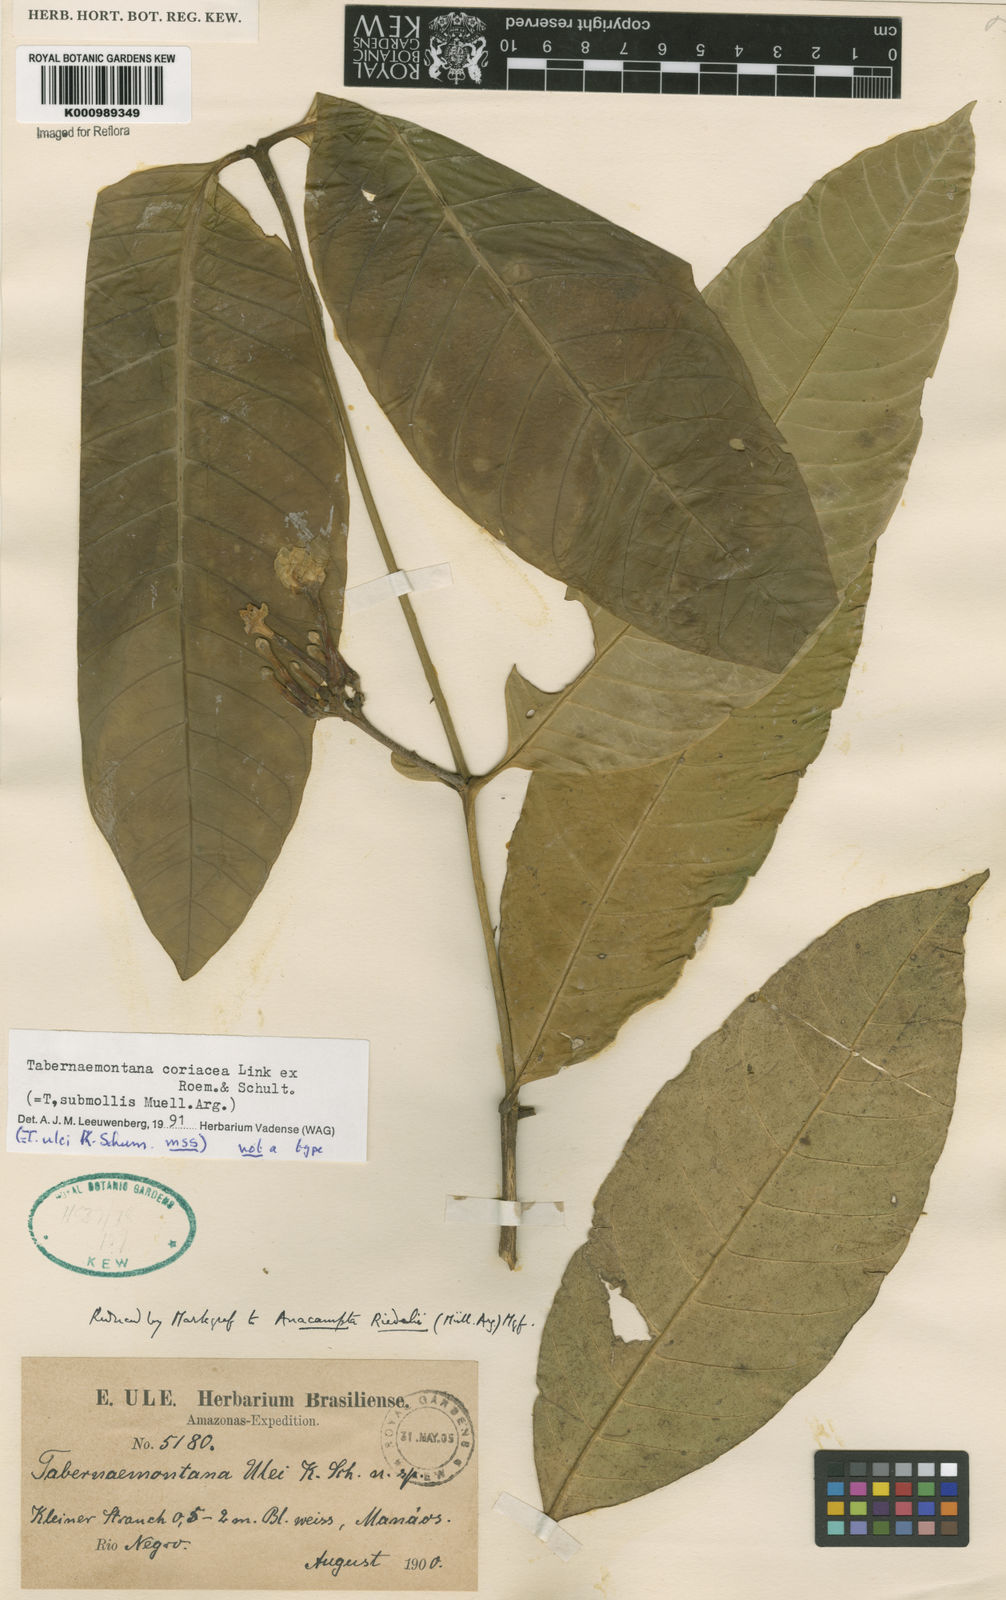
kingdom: Plantae
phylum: Tracheophyta
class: Magnoliopsida
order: Gentianales
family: Apocynaceae
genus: Tabernaemontana
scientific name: Tabernaemontana coriacea
